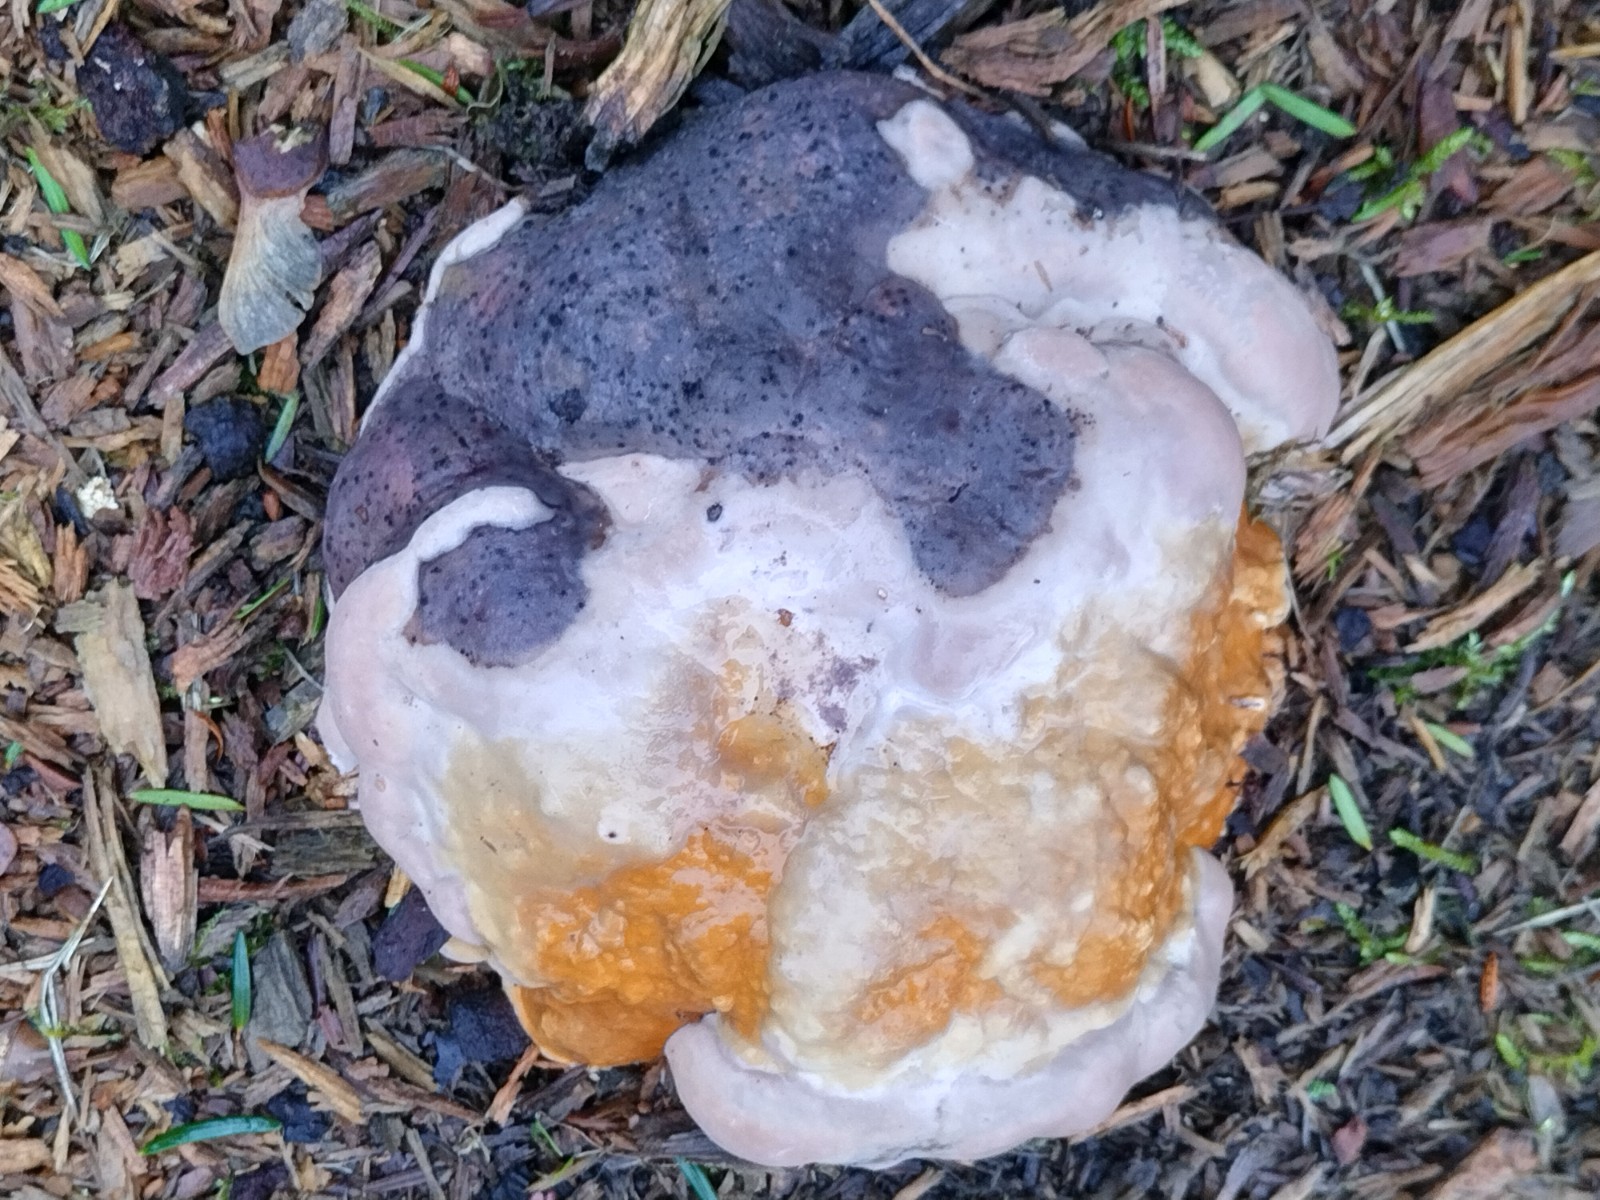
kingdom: Fungi
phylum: Basidiomycota
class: Agaricomycetes
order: Polyporales
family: Fomitopsidaceae
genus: Fomitopsis
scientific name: Fomitopsis pinicola
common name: randbæltet hovporesvamp
